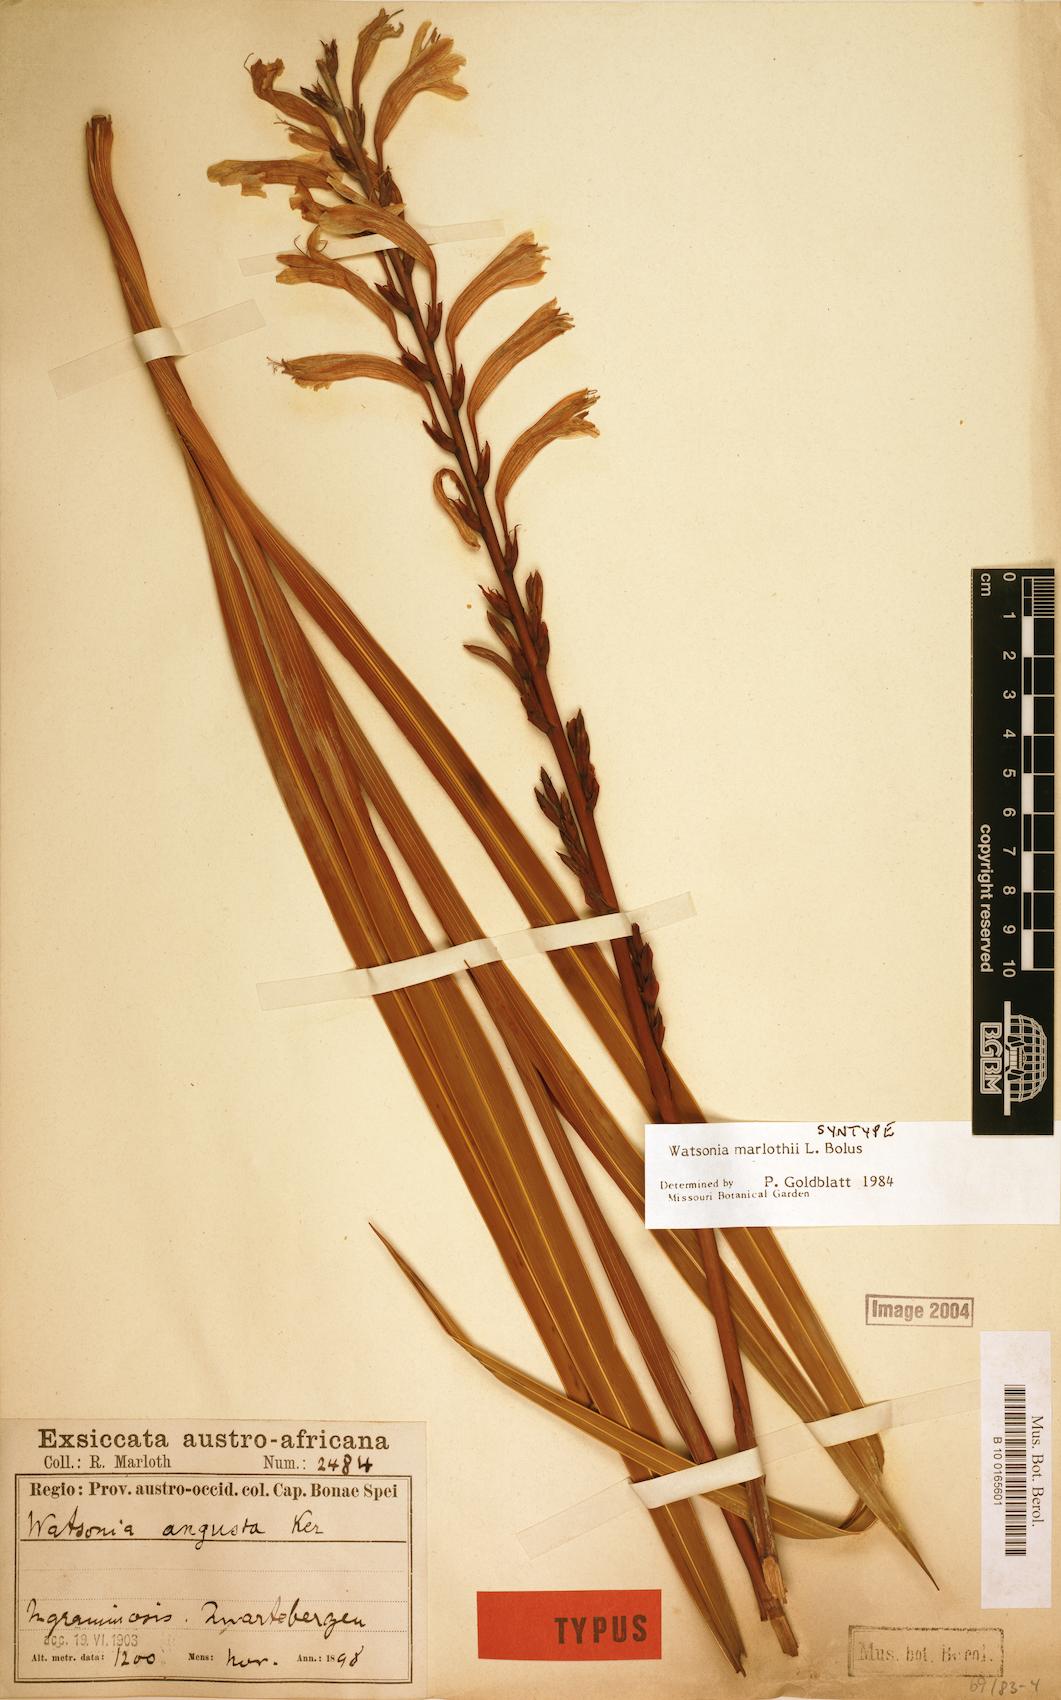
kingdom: Plantae
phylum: Tracheophyta
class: Liliopsida
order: Asparagales
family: Iridaceae
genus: Watsonia
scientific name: Watsonia marlothii
